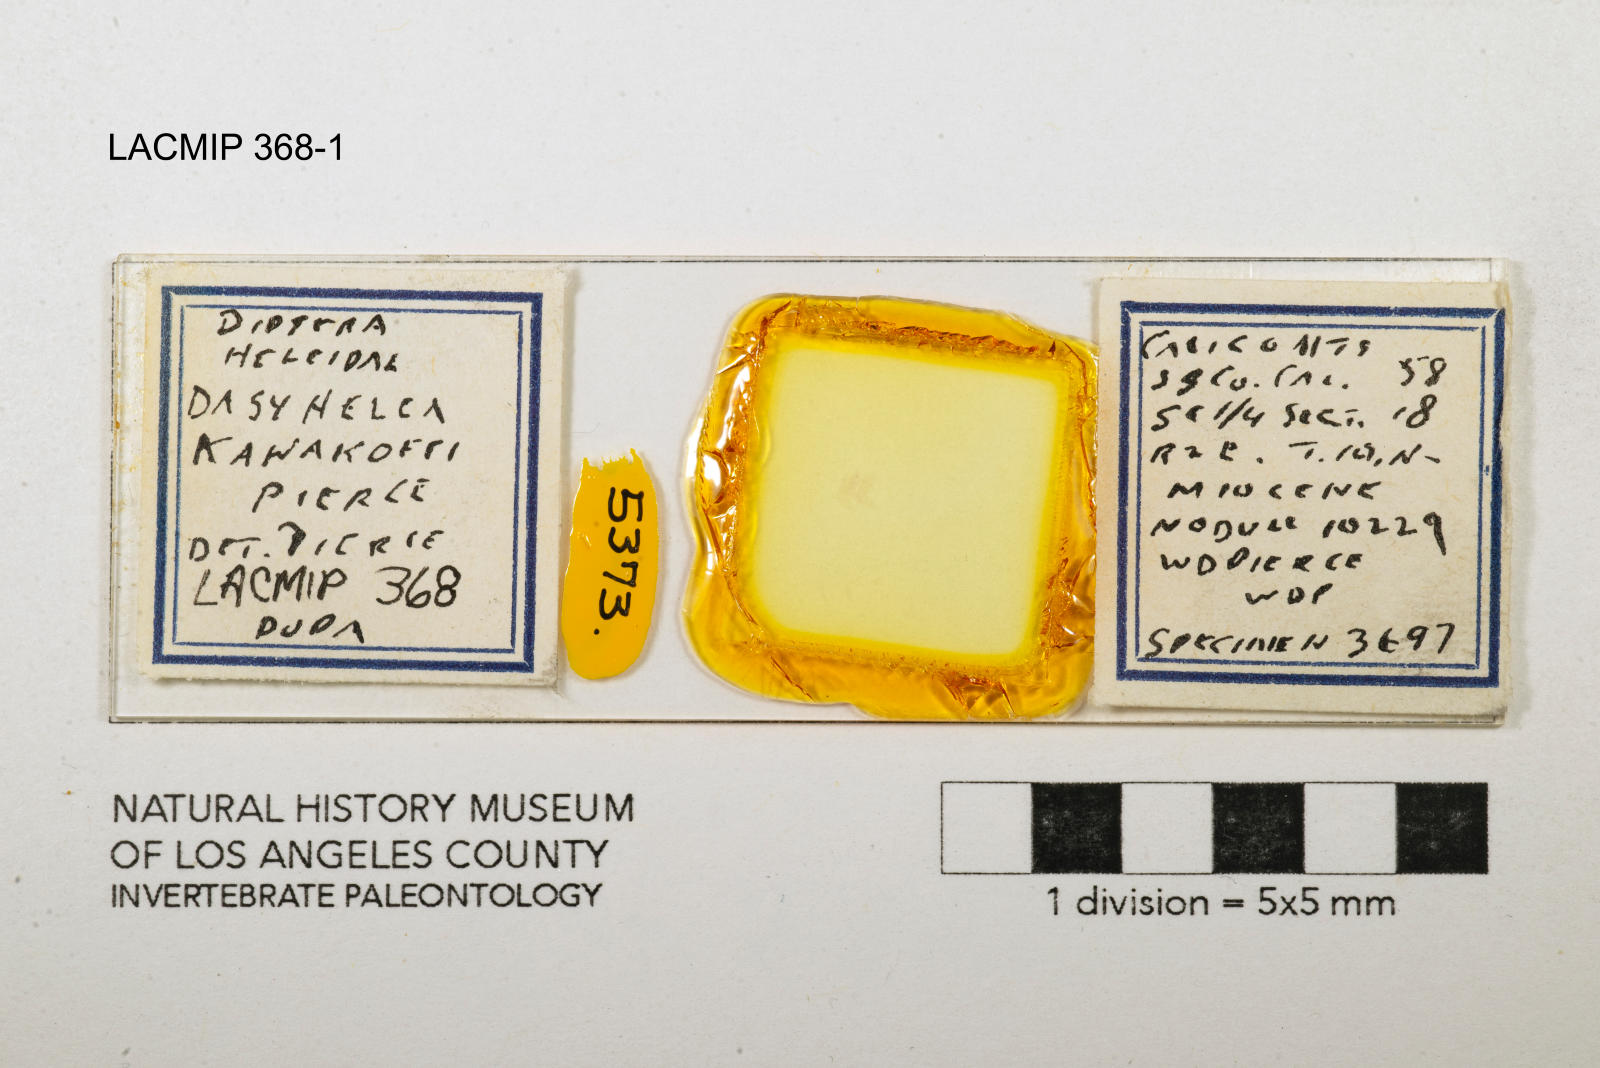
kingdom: Animalia
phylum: Arthropoda
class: Insecta
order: Diptera
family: Ceratopogonidae
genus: Dasyhelea
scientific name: Dasyhelea kanakoffi
